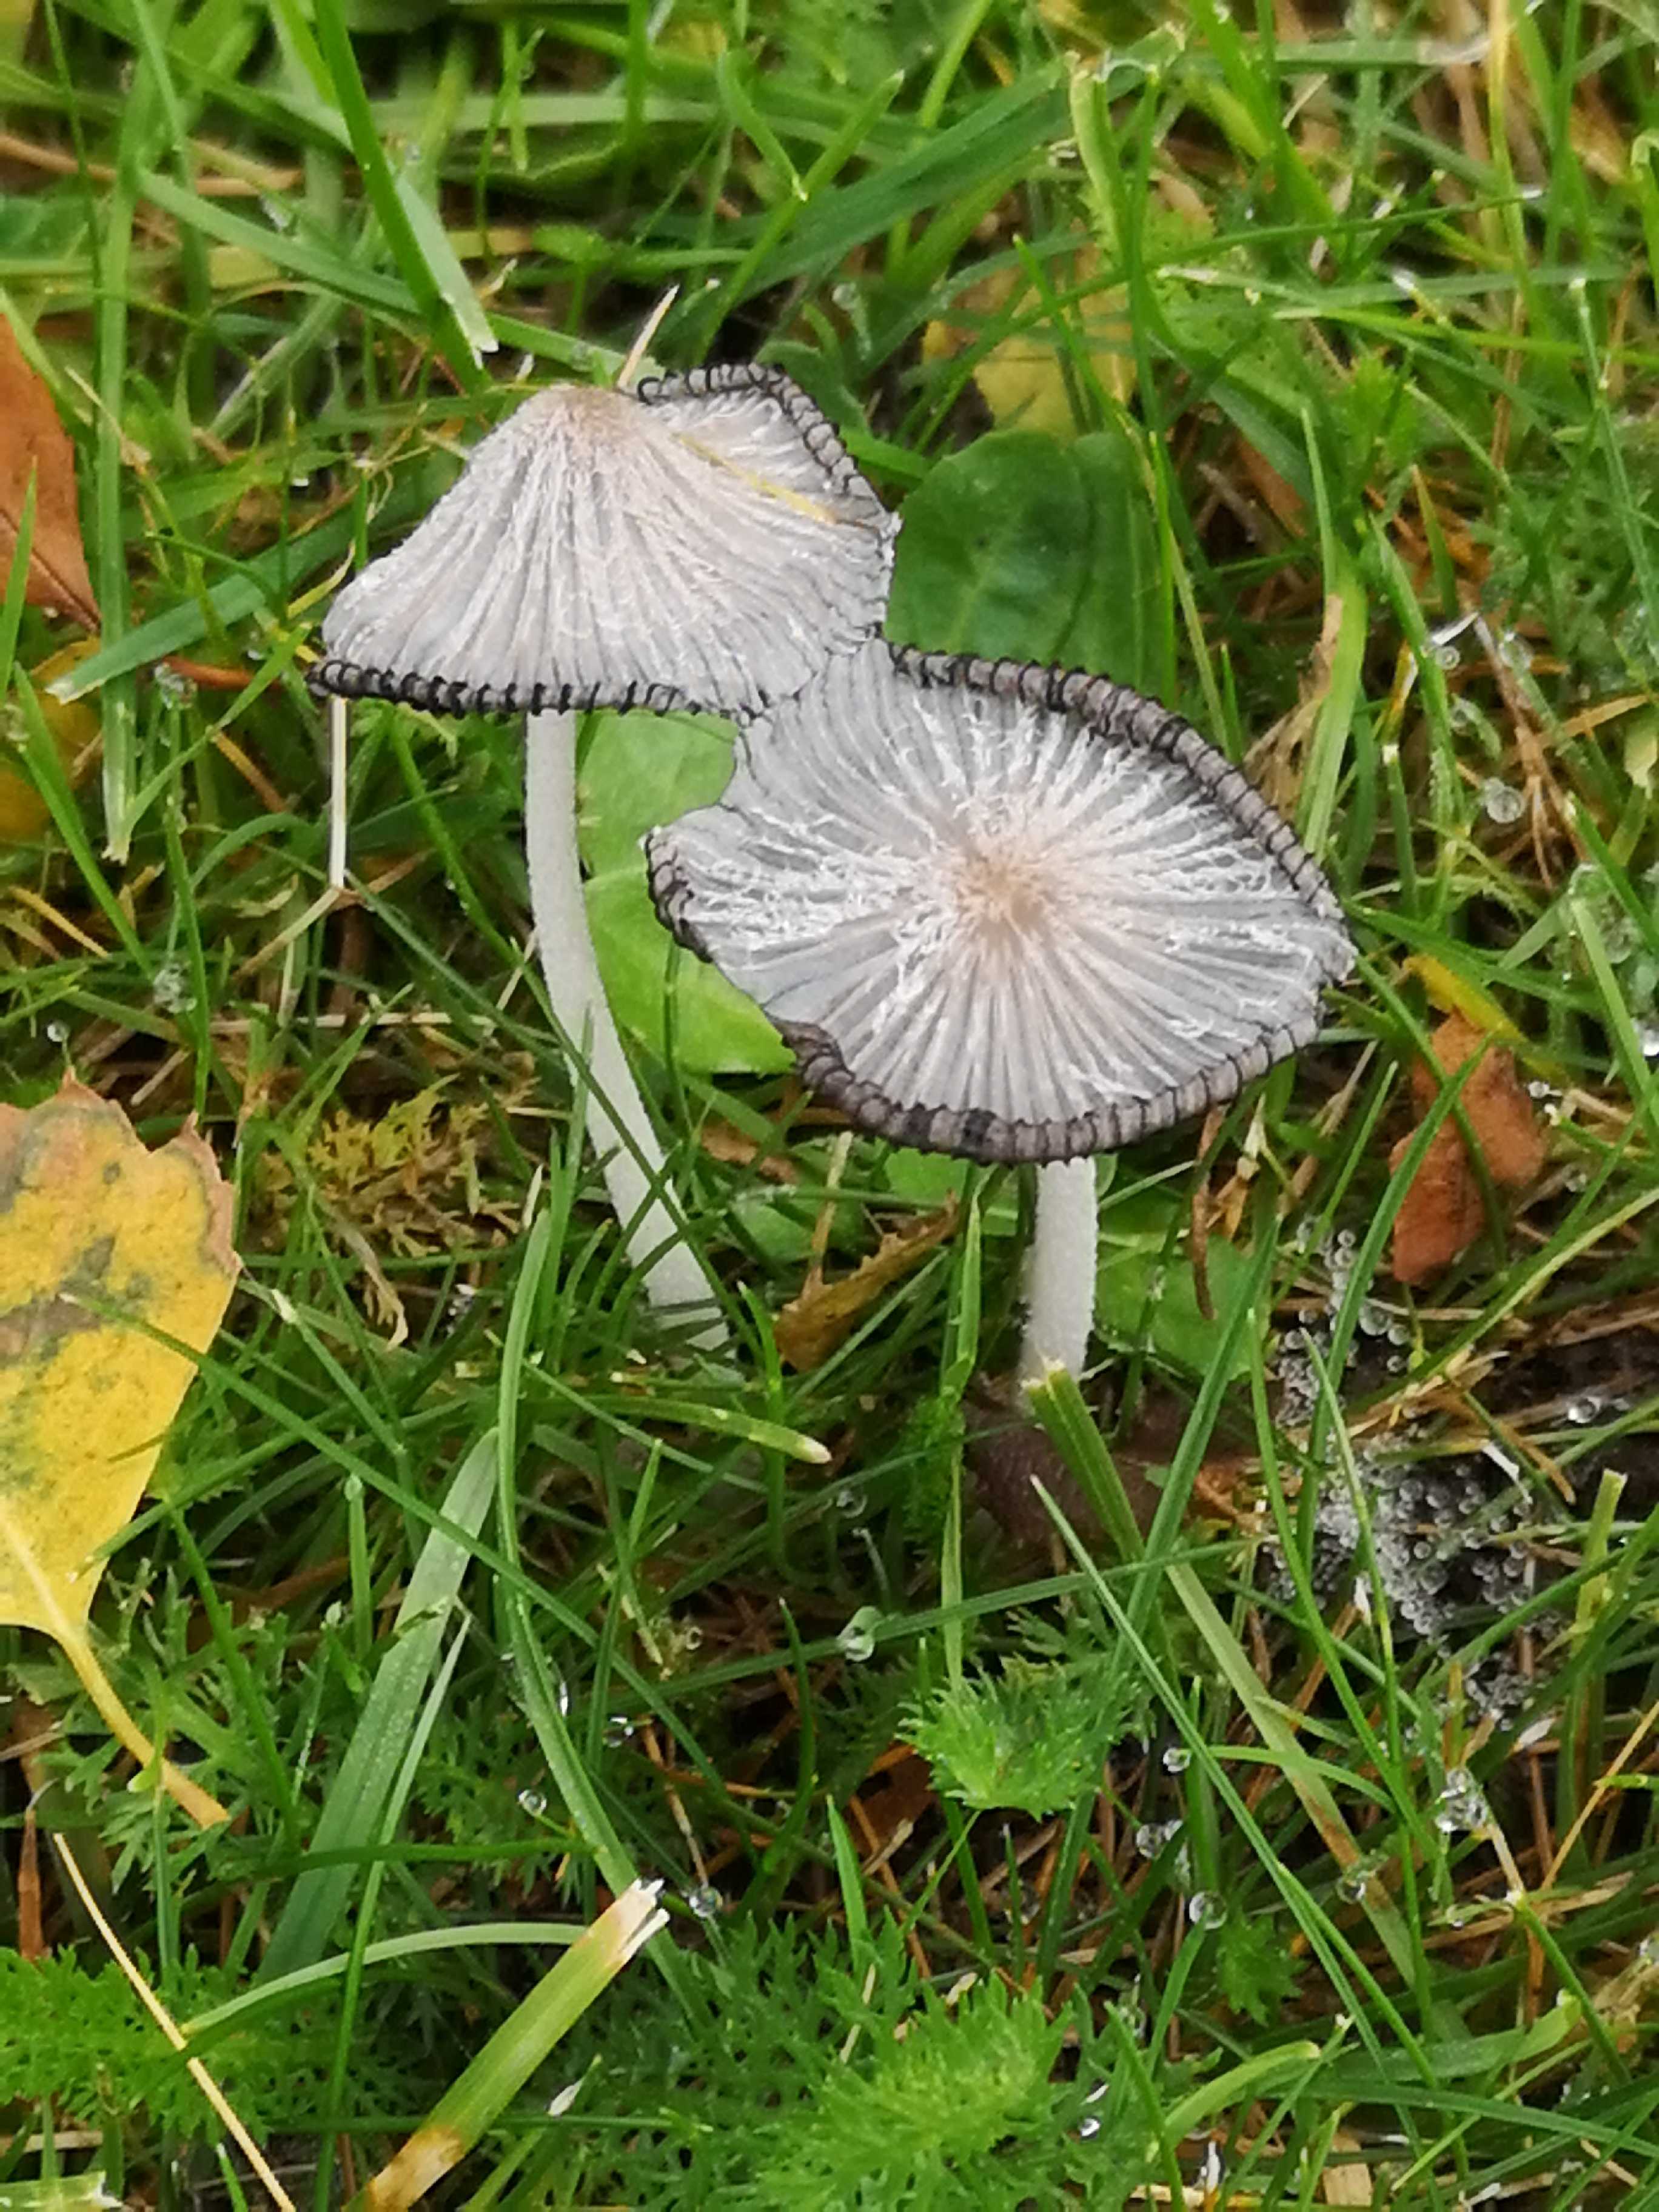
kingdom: Fungi
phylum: Basidiomycota
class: Agaricomycetes
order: Agaricales
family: Psathyrellaceae
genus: Coprinopsis
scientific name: Coprinopsis lagopus
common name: dunstokket blækhat
